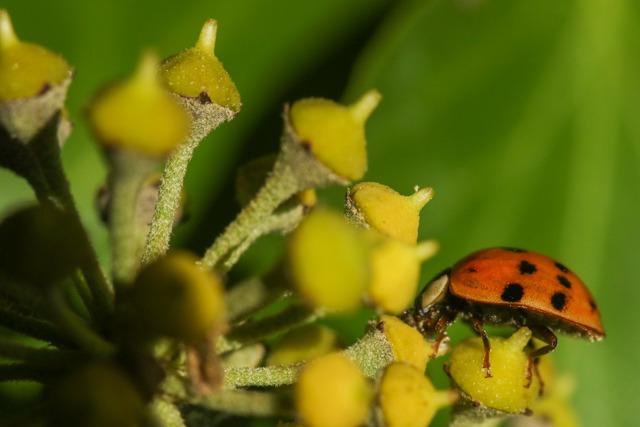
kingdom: Animalia
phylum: Arthropoda
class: Insecta
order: Coleoptera
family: Coccinellidae
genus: Harmonia
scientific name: Harmonia axyridis
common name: Harlekinmariehøne
